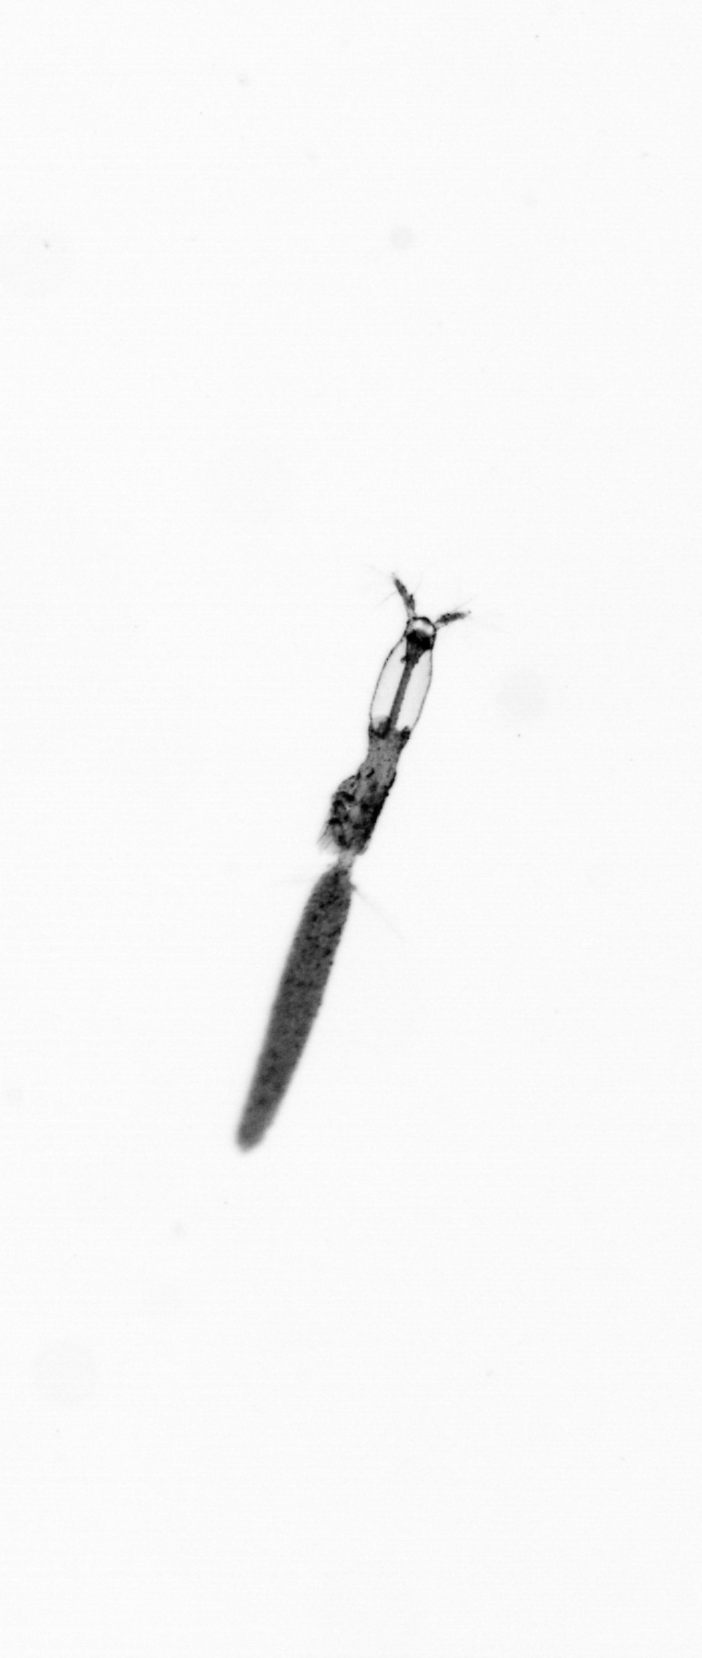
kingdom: Animalia
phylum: Arthropoda
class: Copepoda
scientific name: Copepoda
